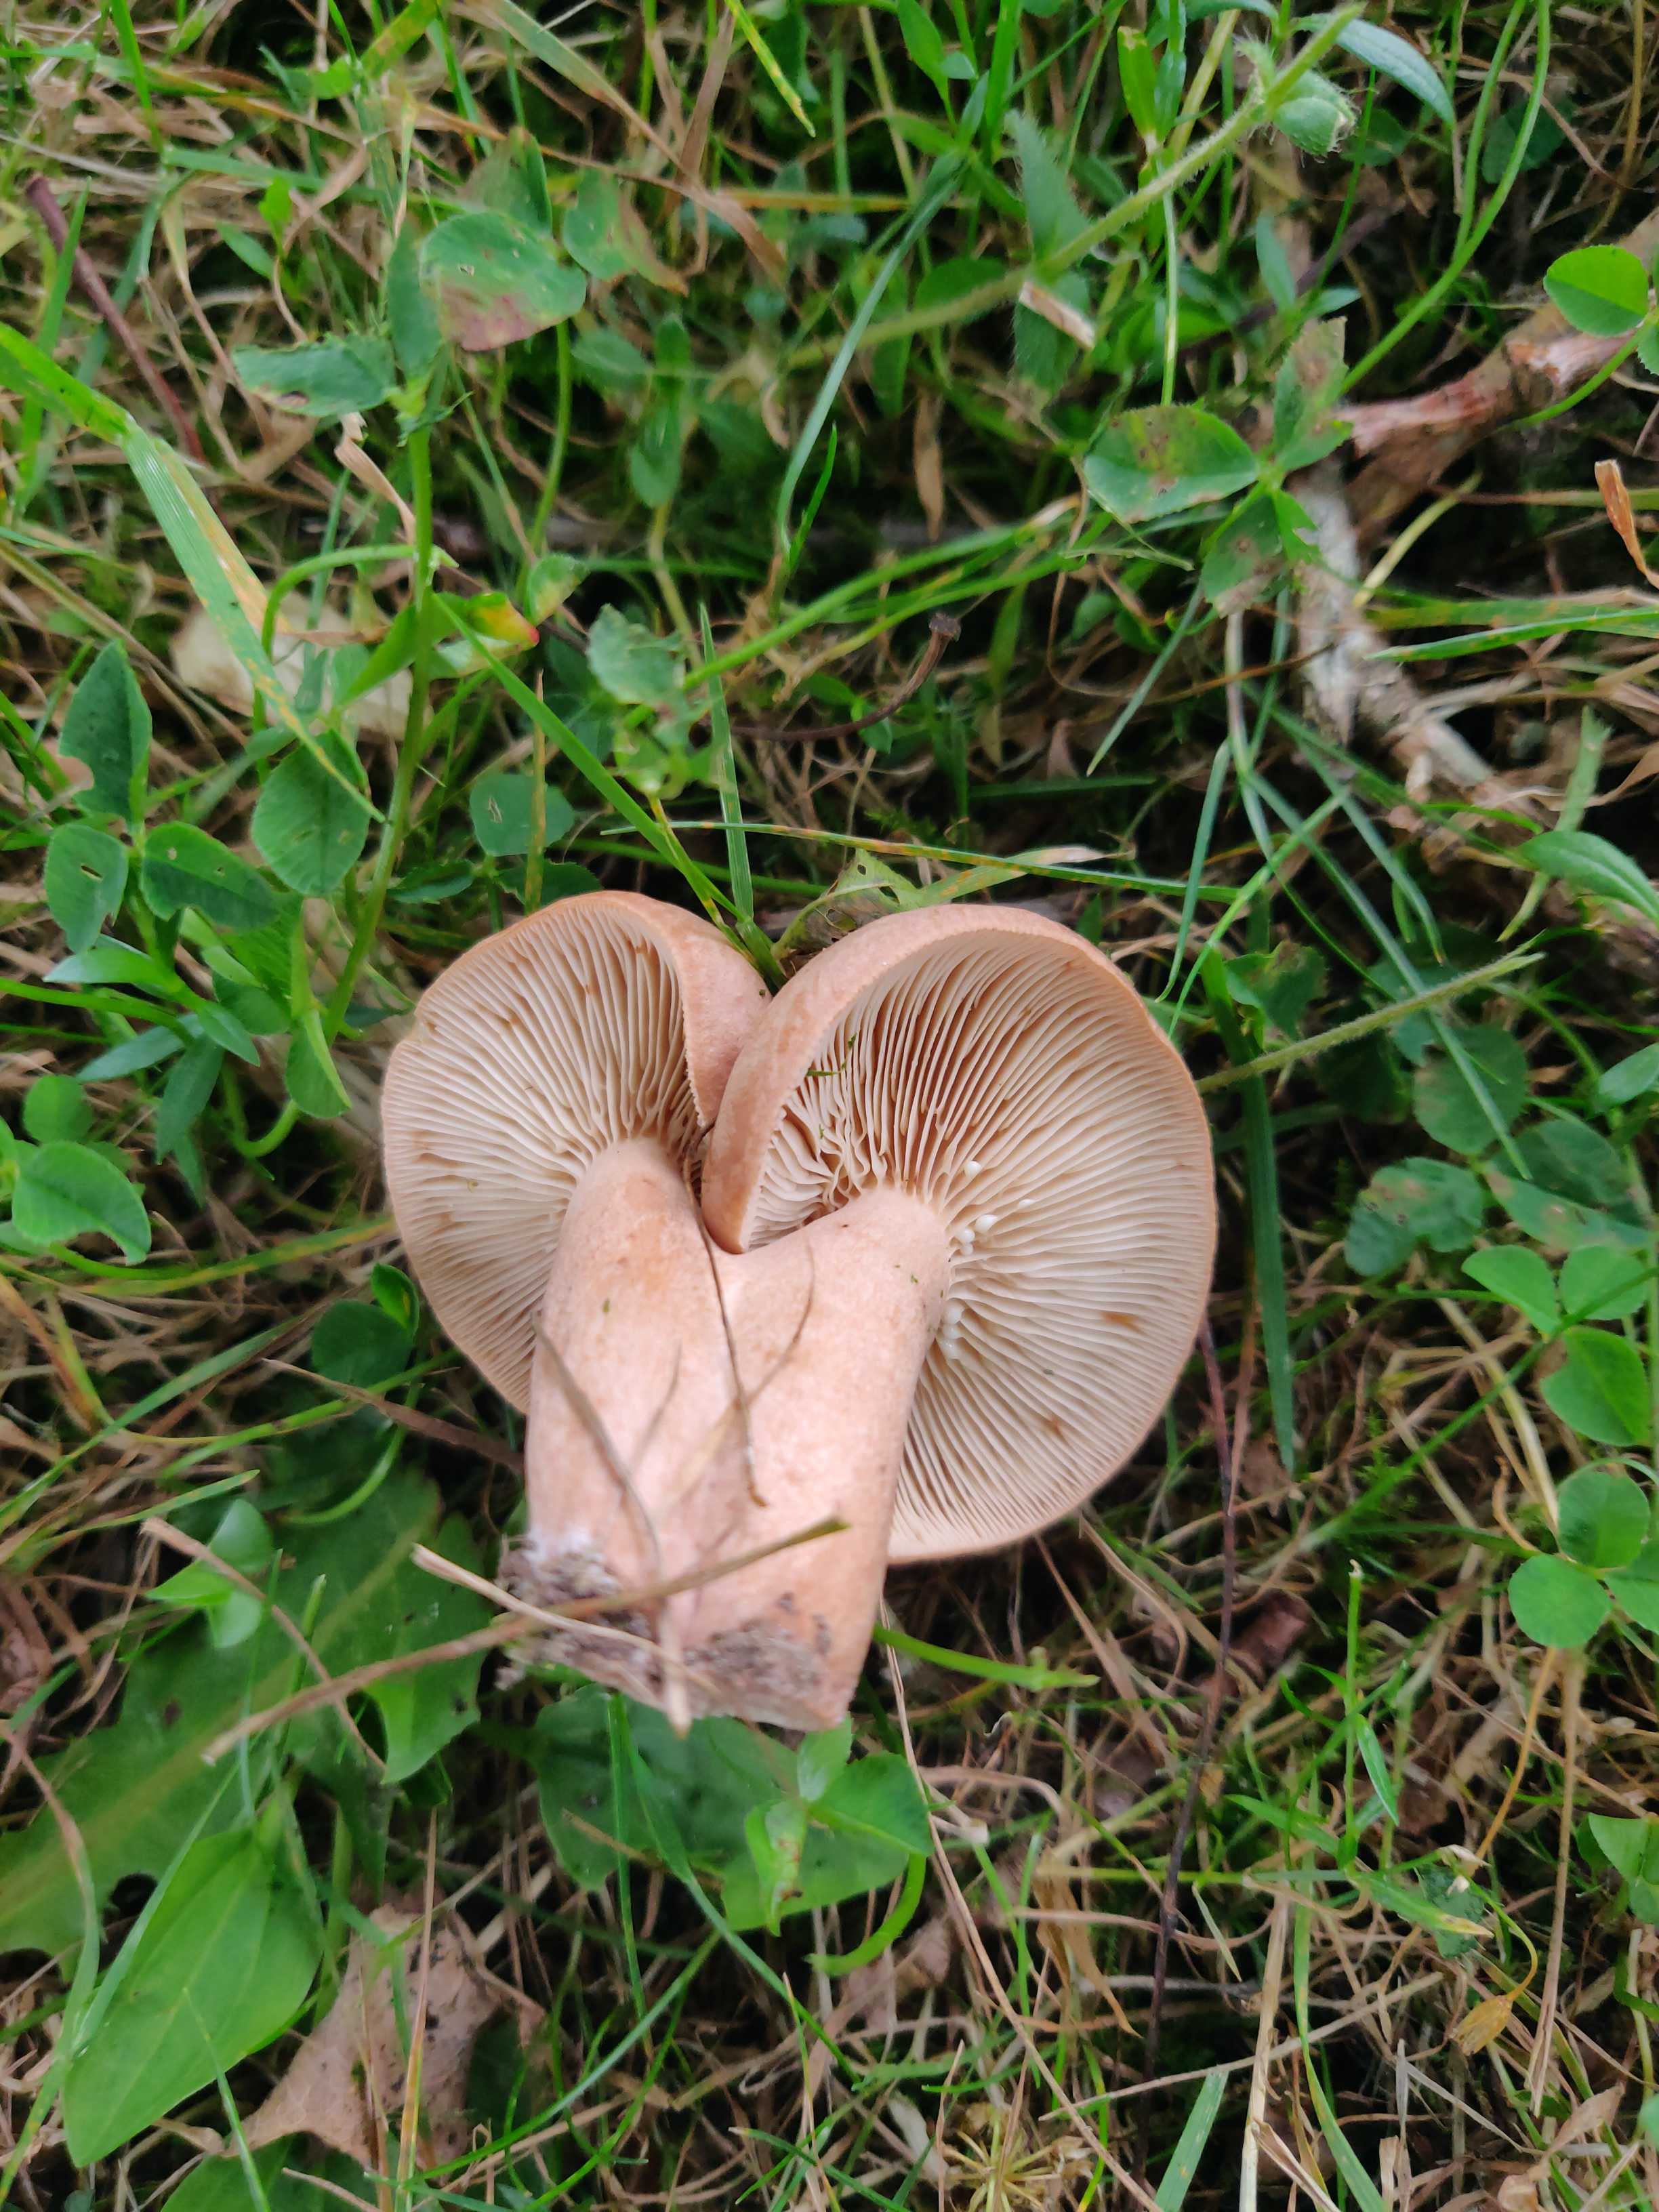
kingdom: Fungi
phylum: Basidiomycota
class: Agaricomycetes
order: Russulales
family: Russulaceae
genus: Lactarius
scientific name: Lactarius quietus
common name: ege-mælkehat
